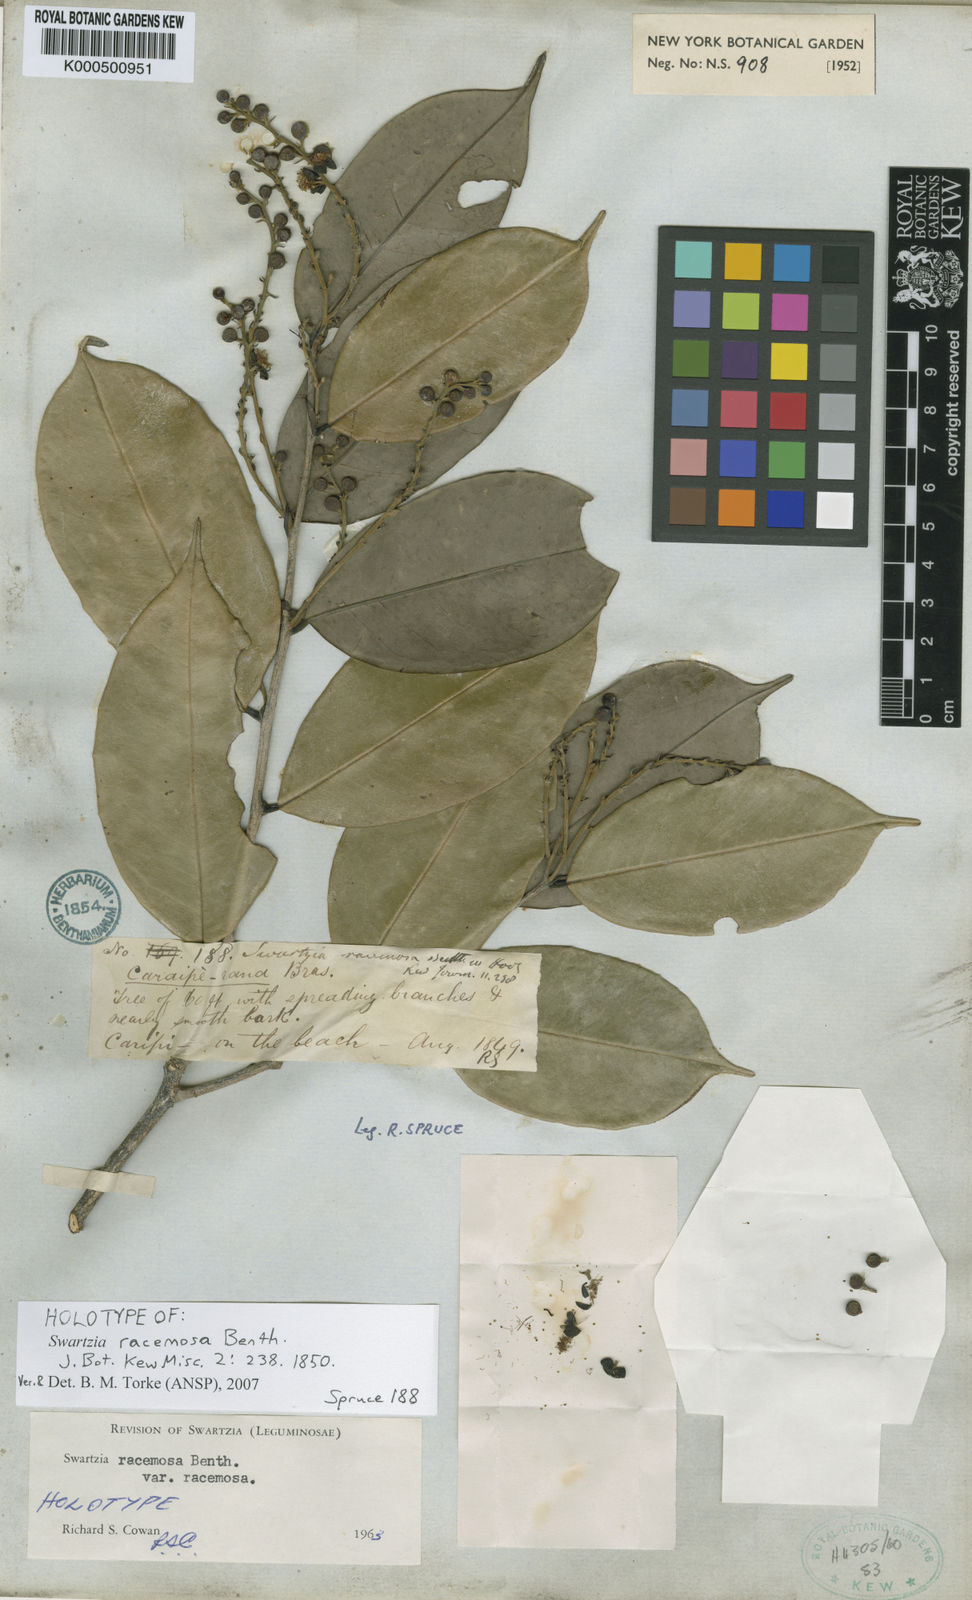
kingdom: Plantae
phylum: Tracheophyta
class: Magnoliopsida
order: Fabales
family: Fabaceae
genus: Swartzia
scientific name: Swartzia racemosa
